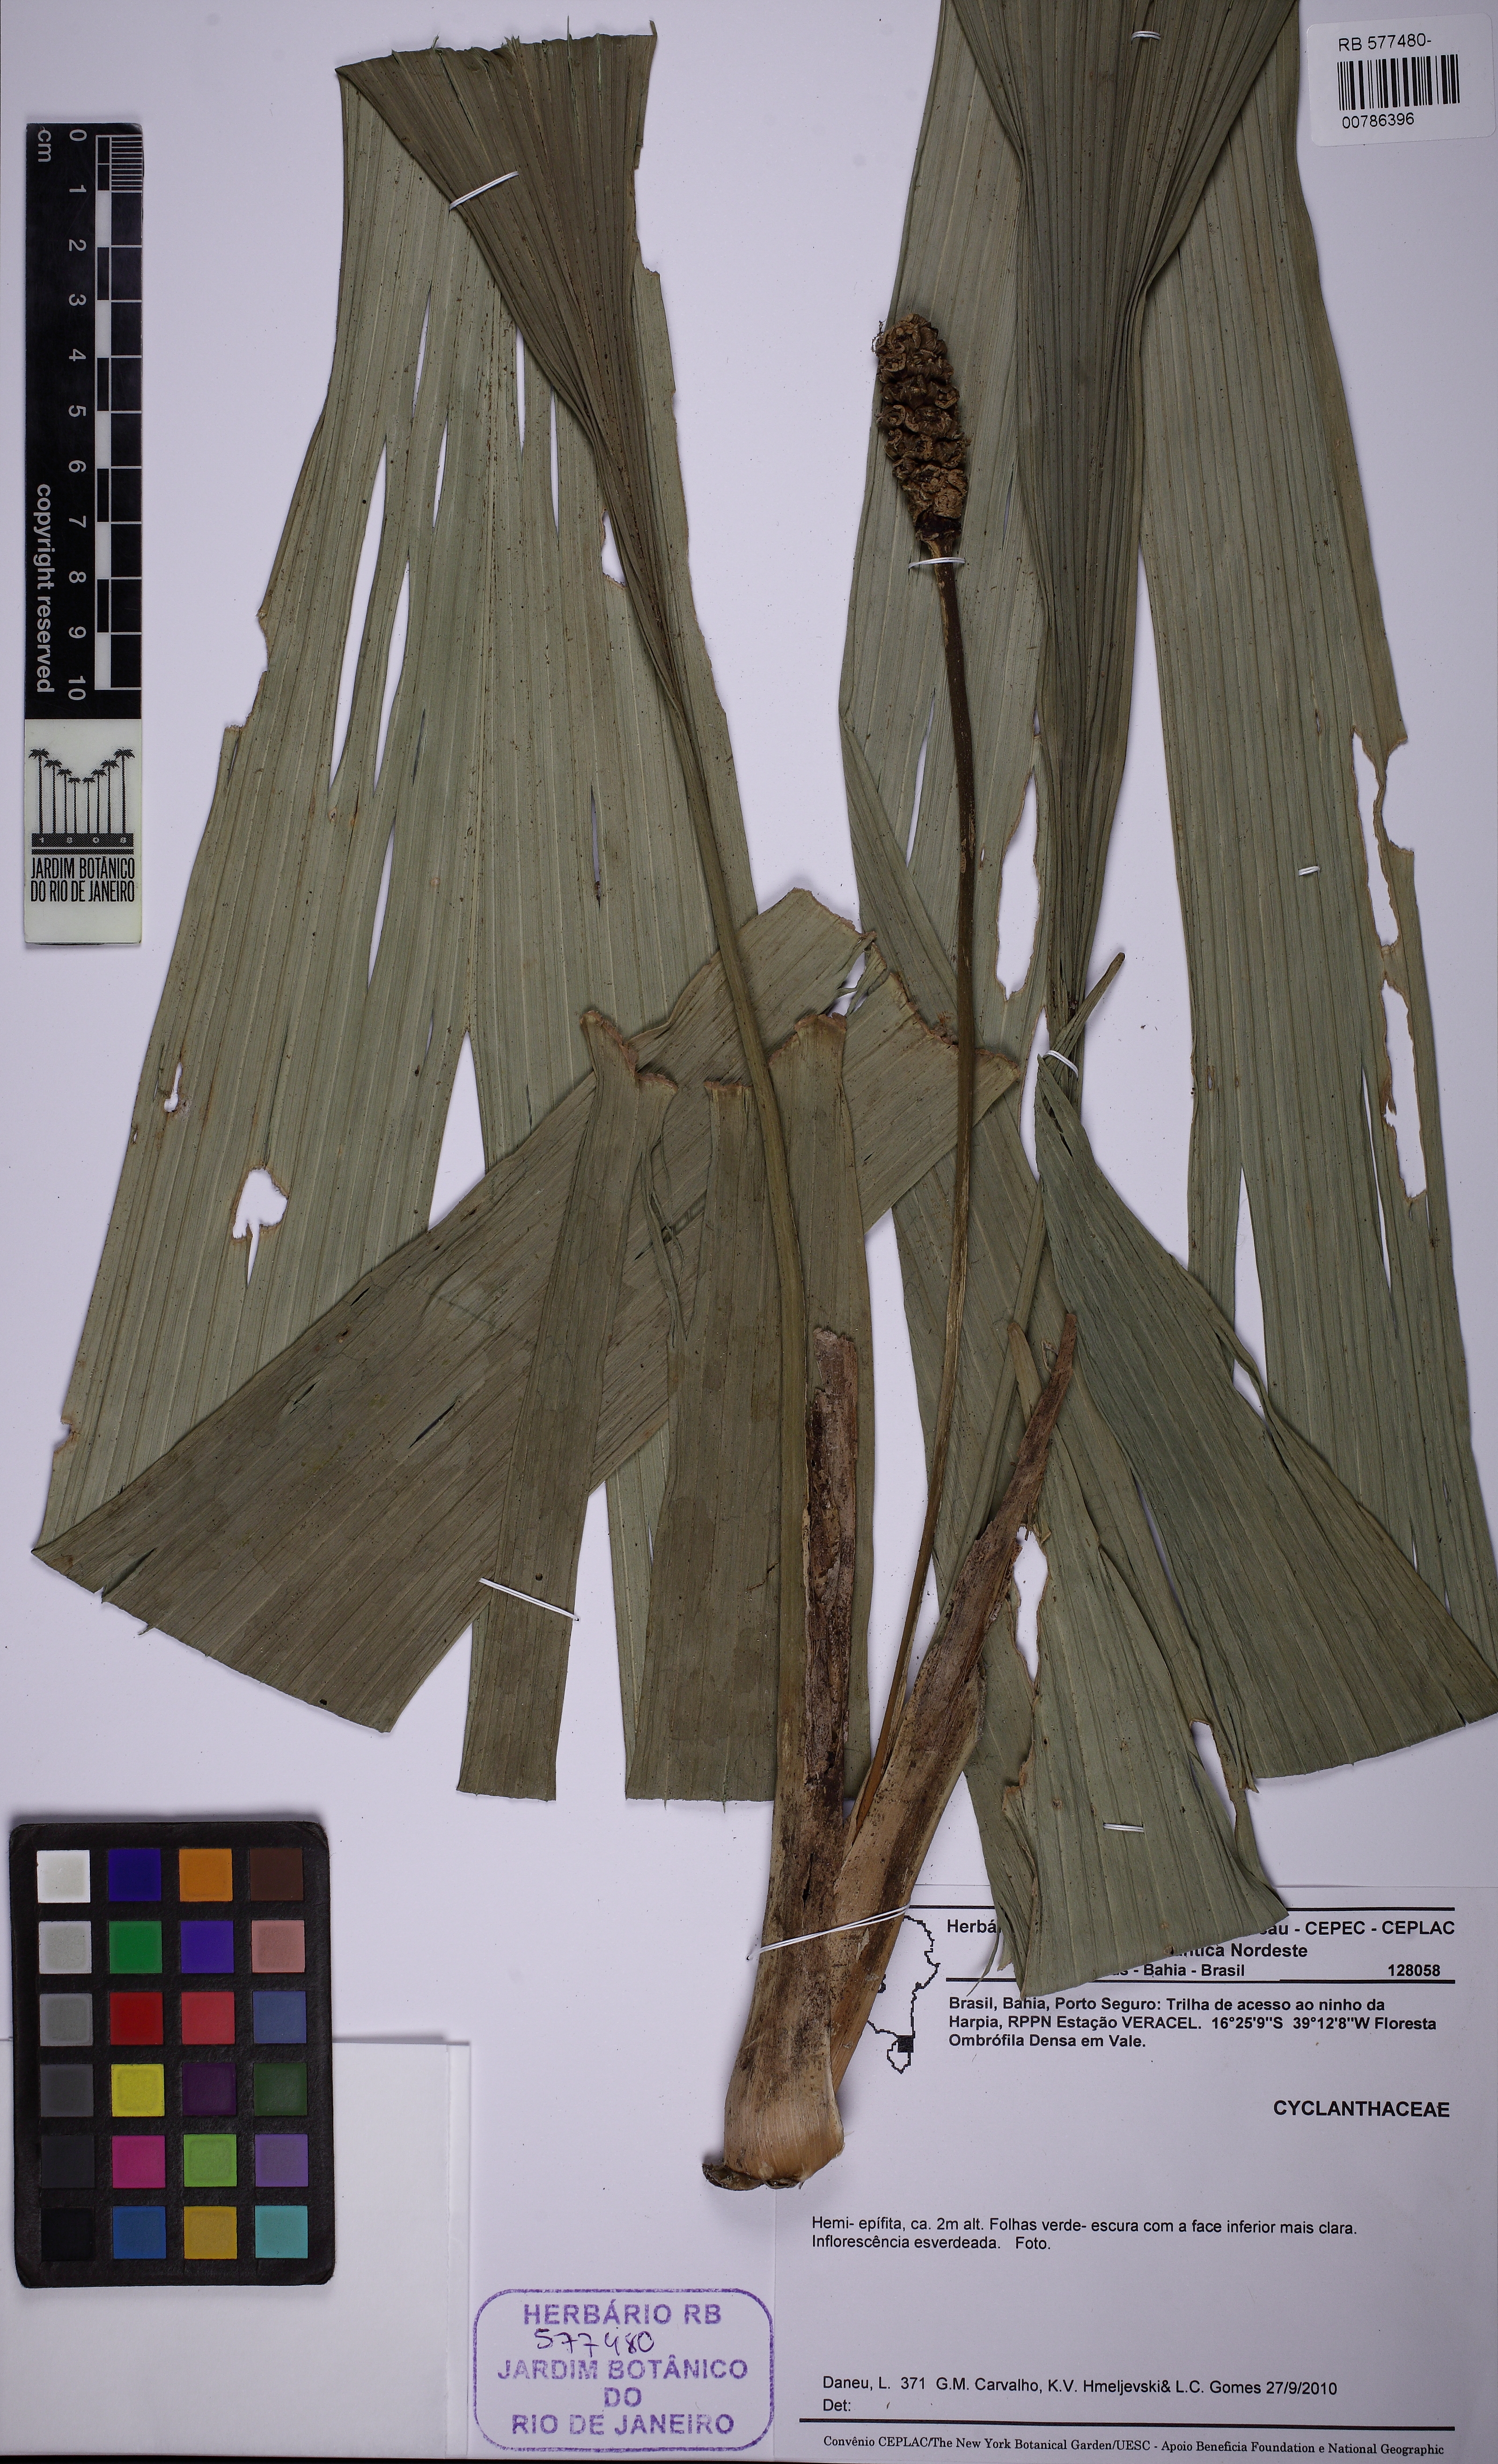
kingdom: Plantae
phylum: Tracheophyta
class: Liliopsida
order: Pandanales
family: Cyclanthaceae
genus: Evodianthus
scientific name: Evodianthus funifer
